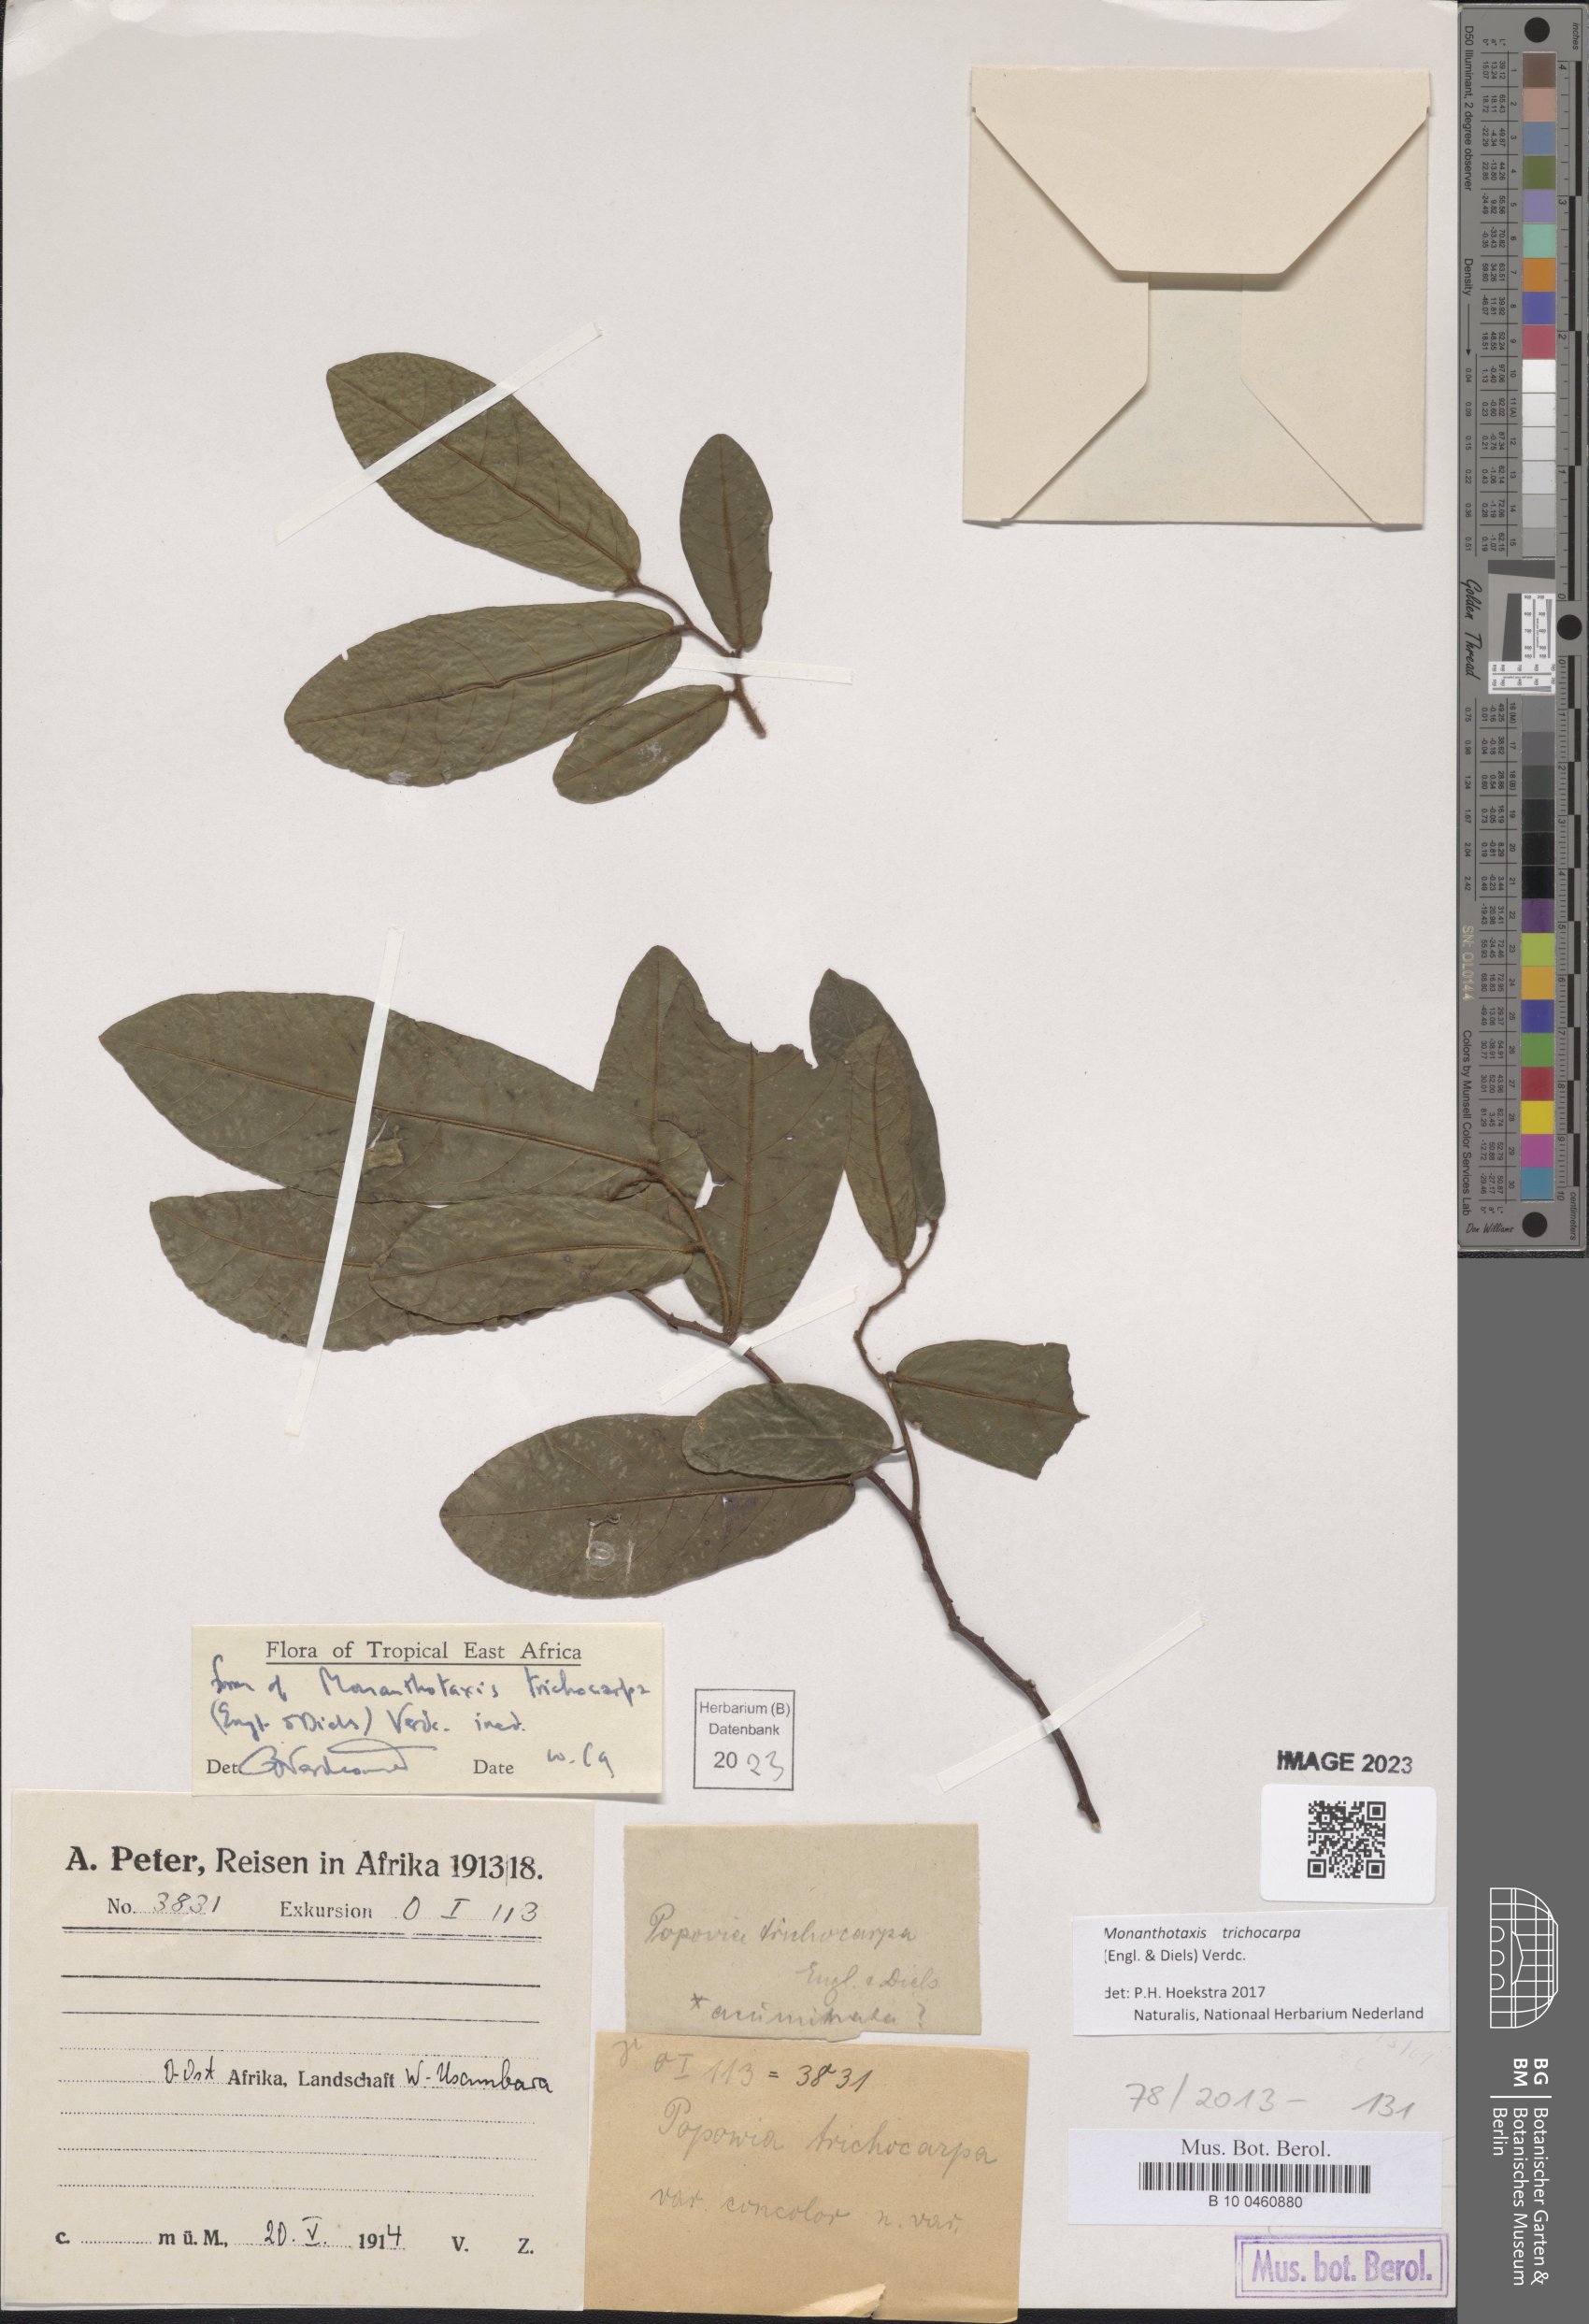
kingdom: Plantae
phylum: Tracheophyta
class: Magnoliopsida
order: Magnoliales
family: Annonaceae
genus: Monanthotaxis
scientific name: Monanthotaxis trichocarpa
